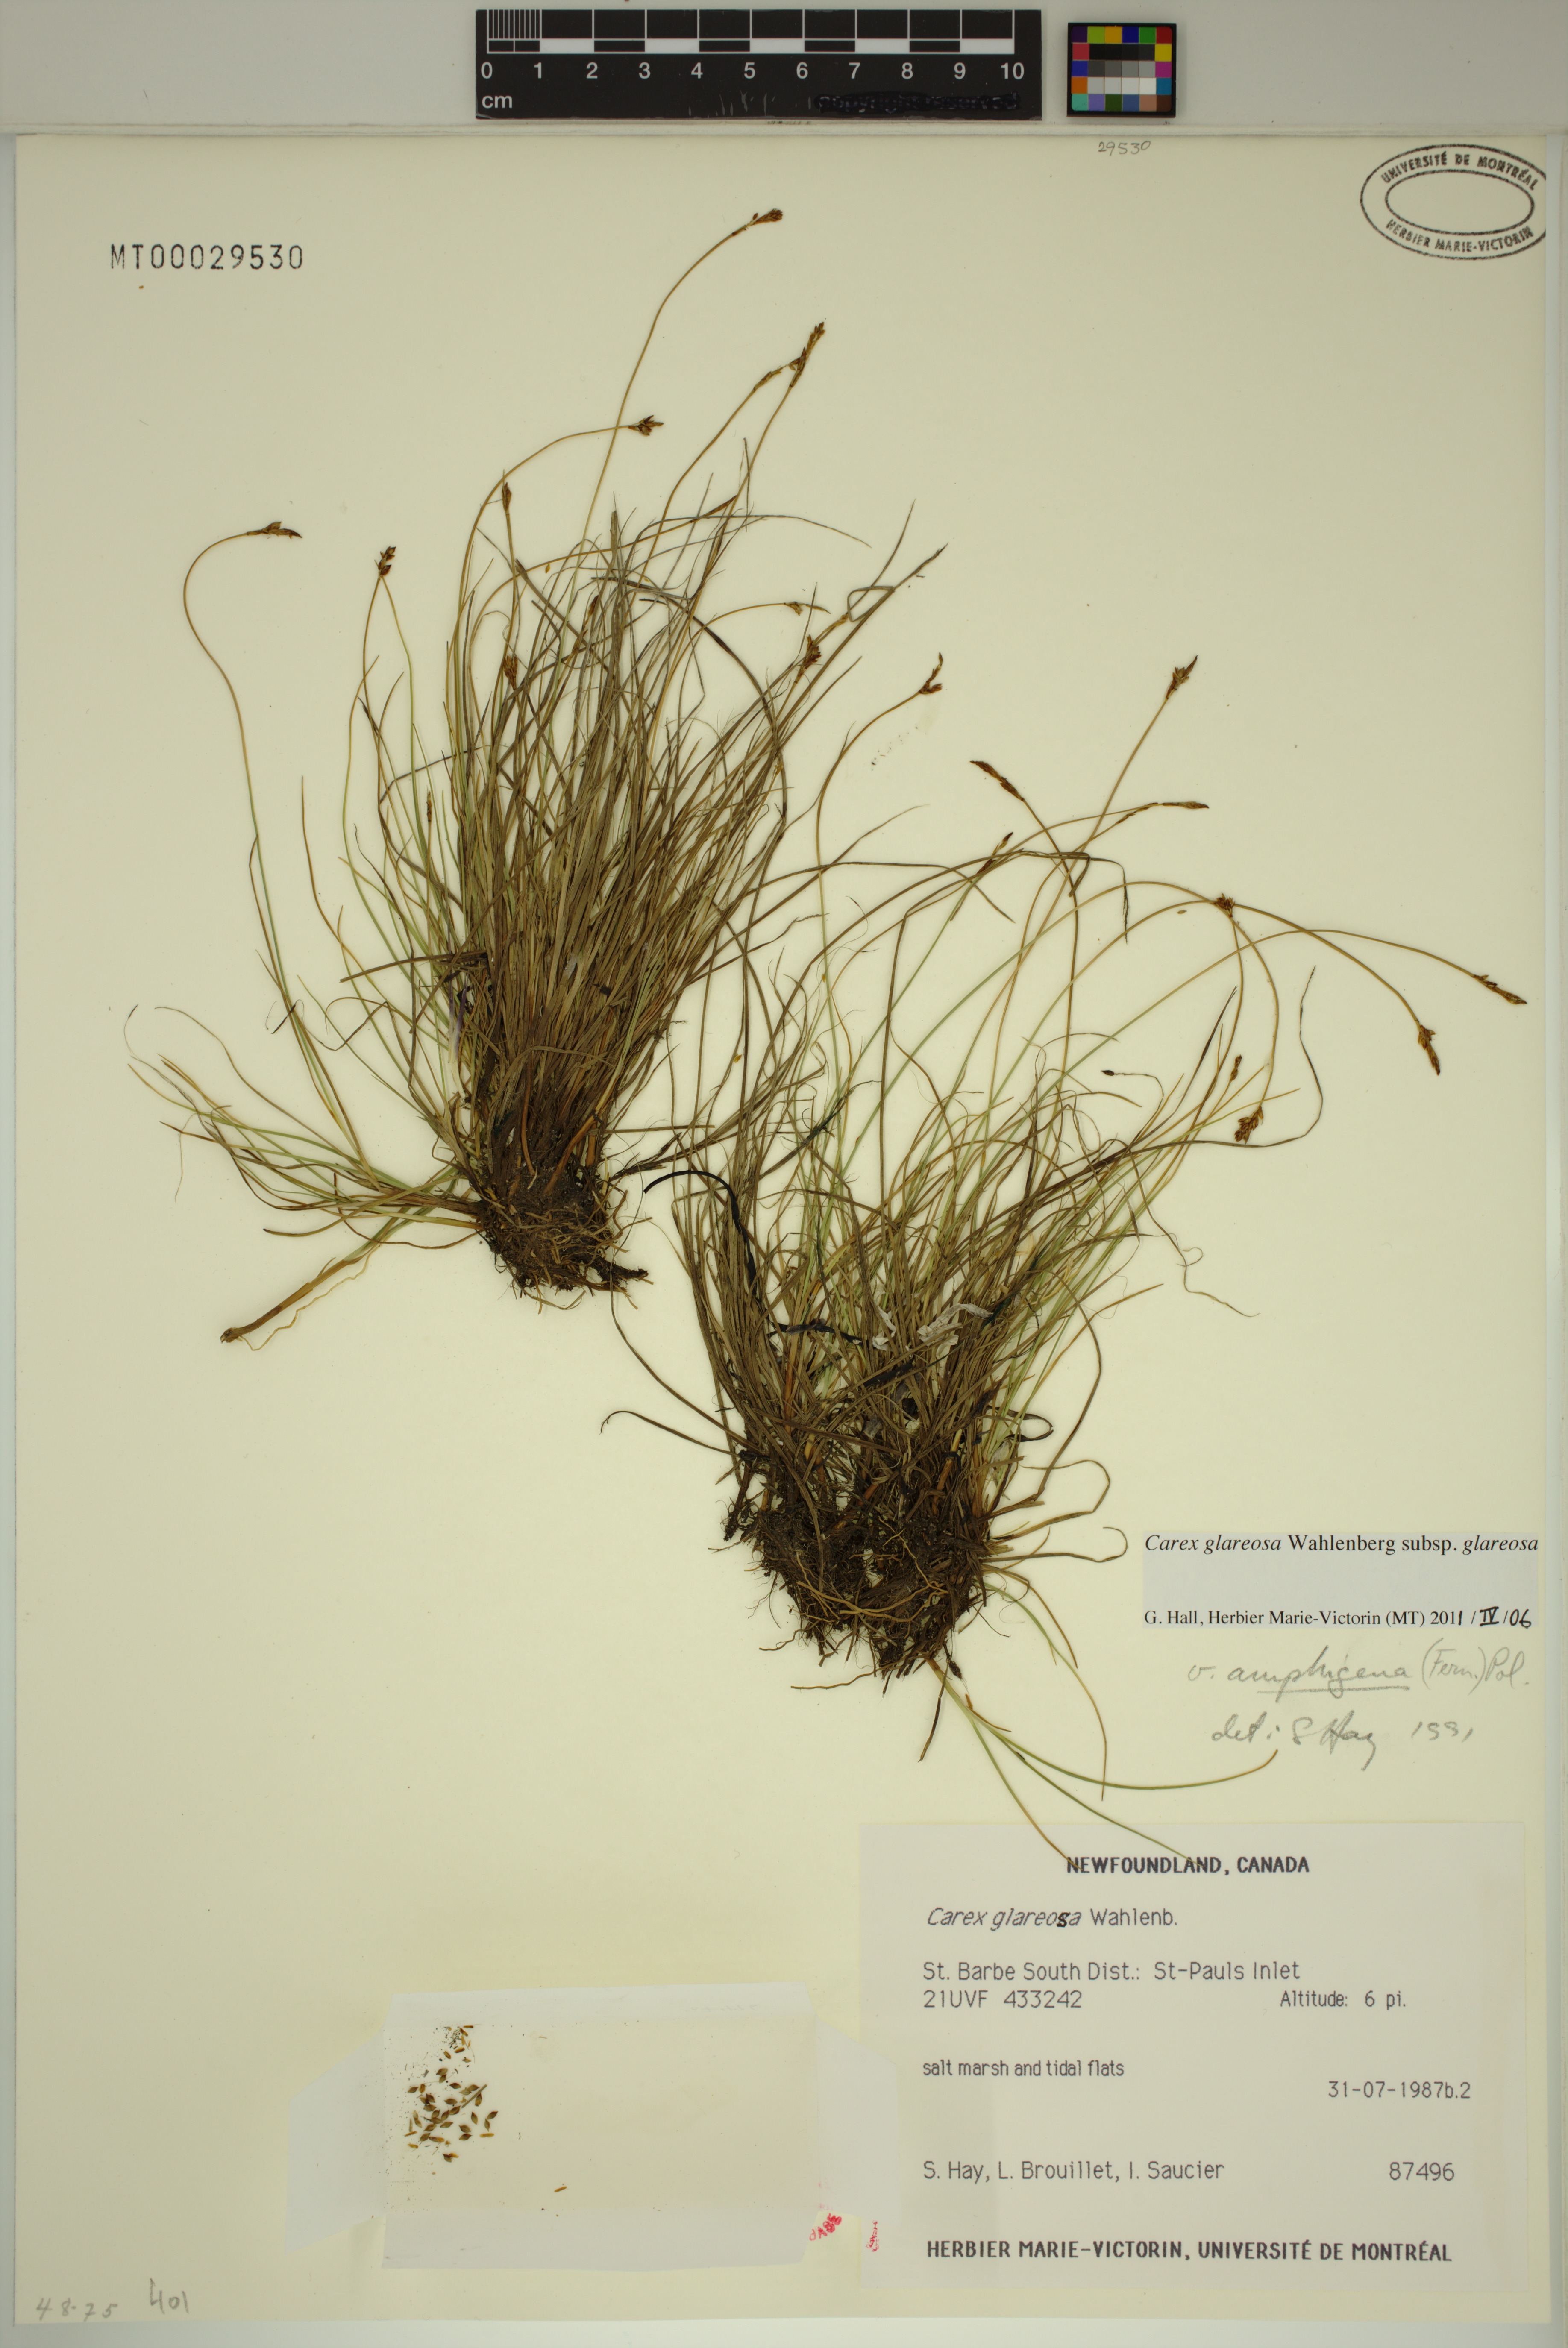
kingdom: Plantae
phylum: Tracheophyta
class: Liliopsida
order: Poales
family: Cyperaceae
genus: Carex
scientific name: Carex glareosa
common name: Clustered sedge
